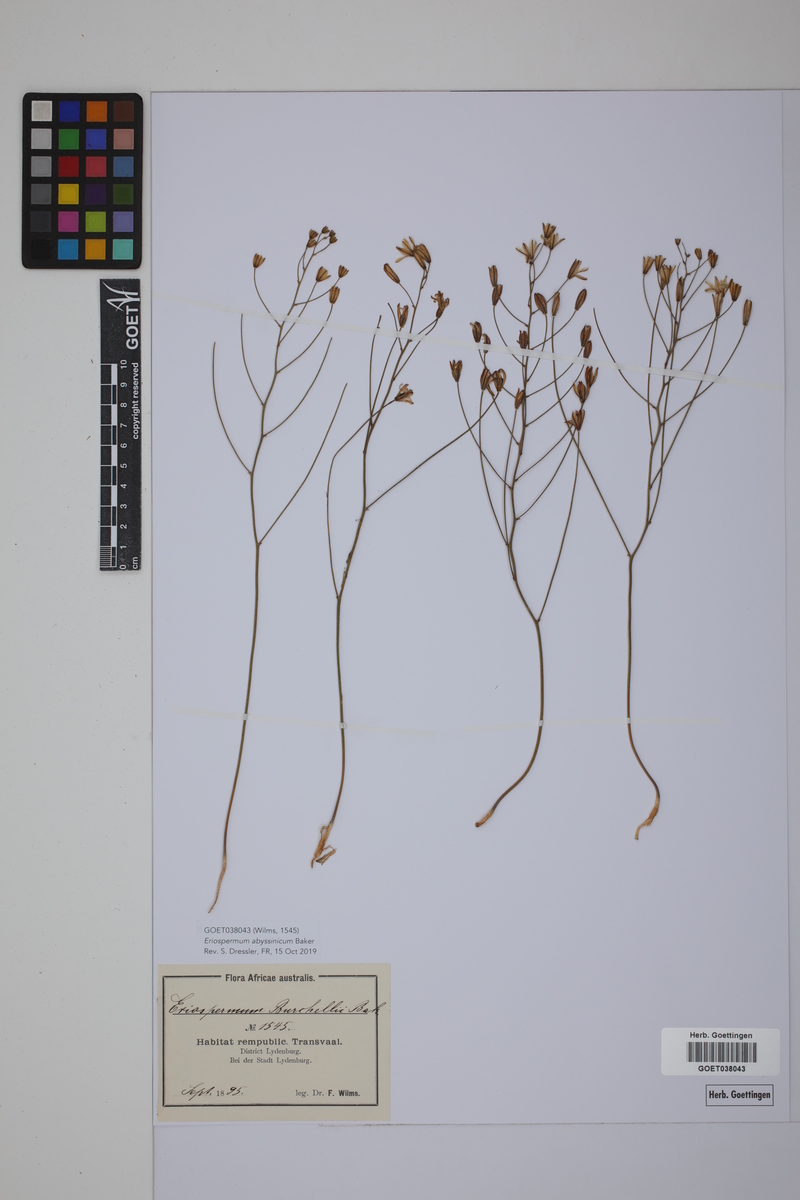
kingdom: Plantae
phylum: Tracheophyta
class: Liliopsida
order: Asparagales
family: Asparagaceae
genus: Eriospermum
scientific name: Eriospermum abyssinicum
